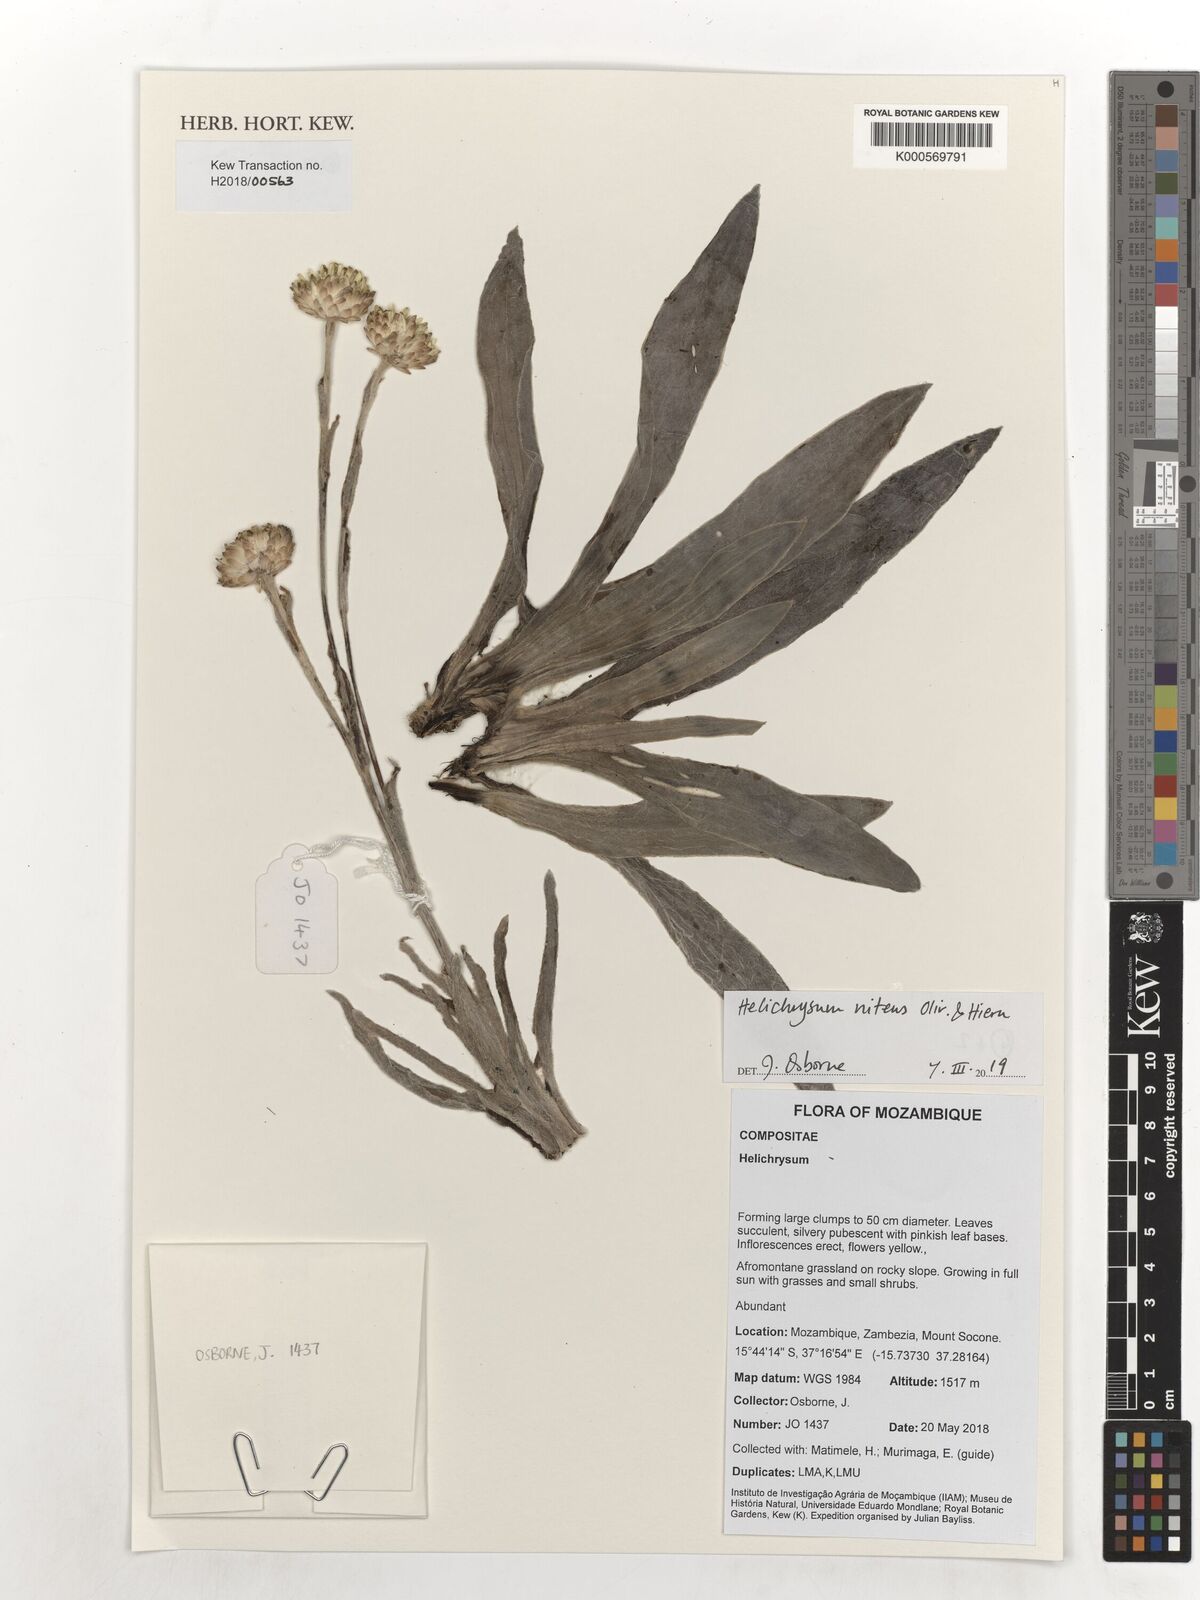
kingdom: Plantae
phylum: Tracheophyta
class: Magnoliopsida
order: Asterales
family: Asteraceae
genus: Helichrysum
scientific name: Helichrysum nitens
